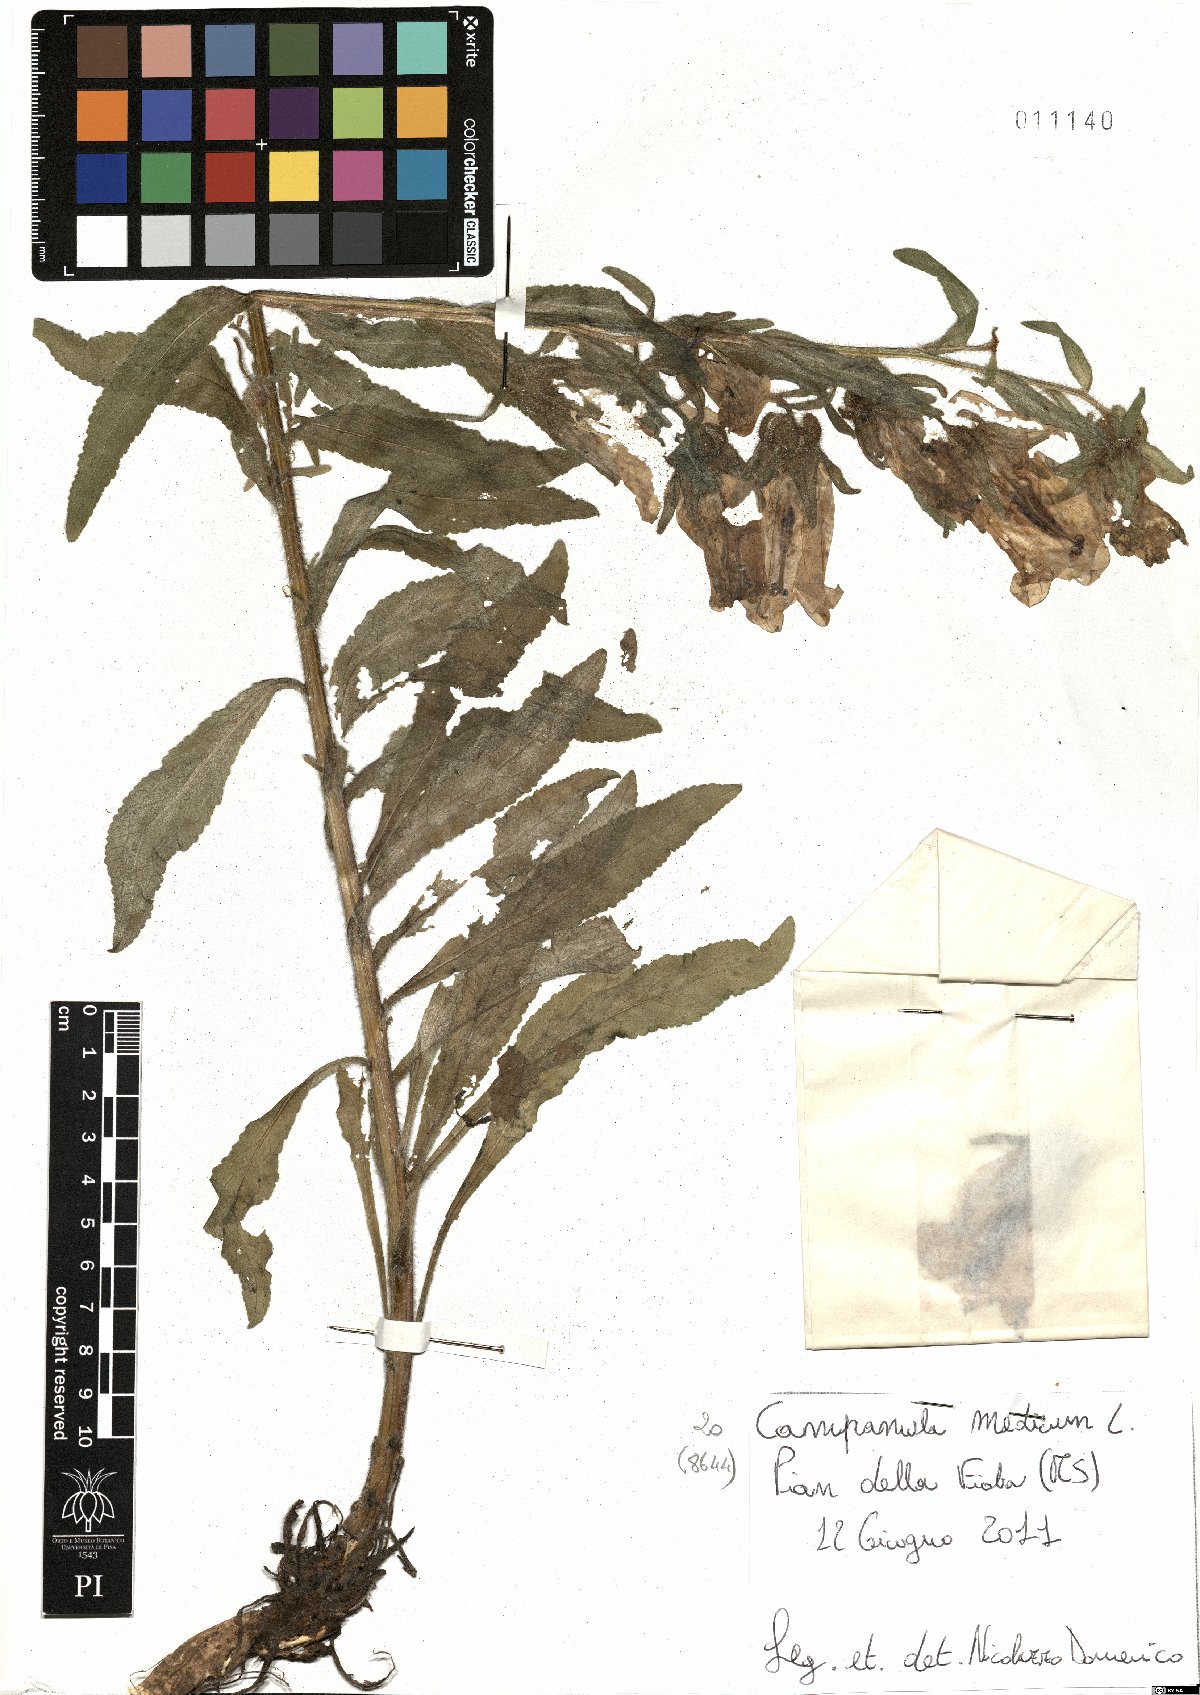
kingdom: Plantae
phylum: Tracheophyta
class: Magnoliopsida
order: Asterales
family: Campanulaceae
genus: Campanula
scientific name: Campanula medium
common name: Canterbury bells
